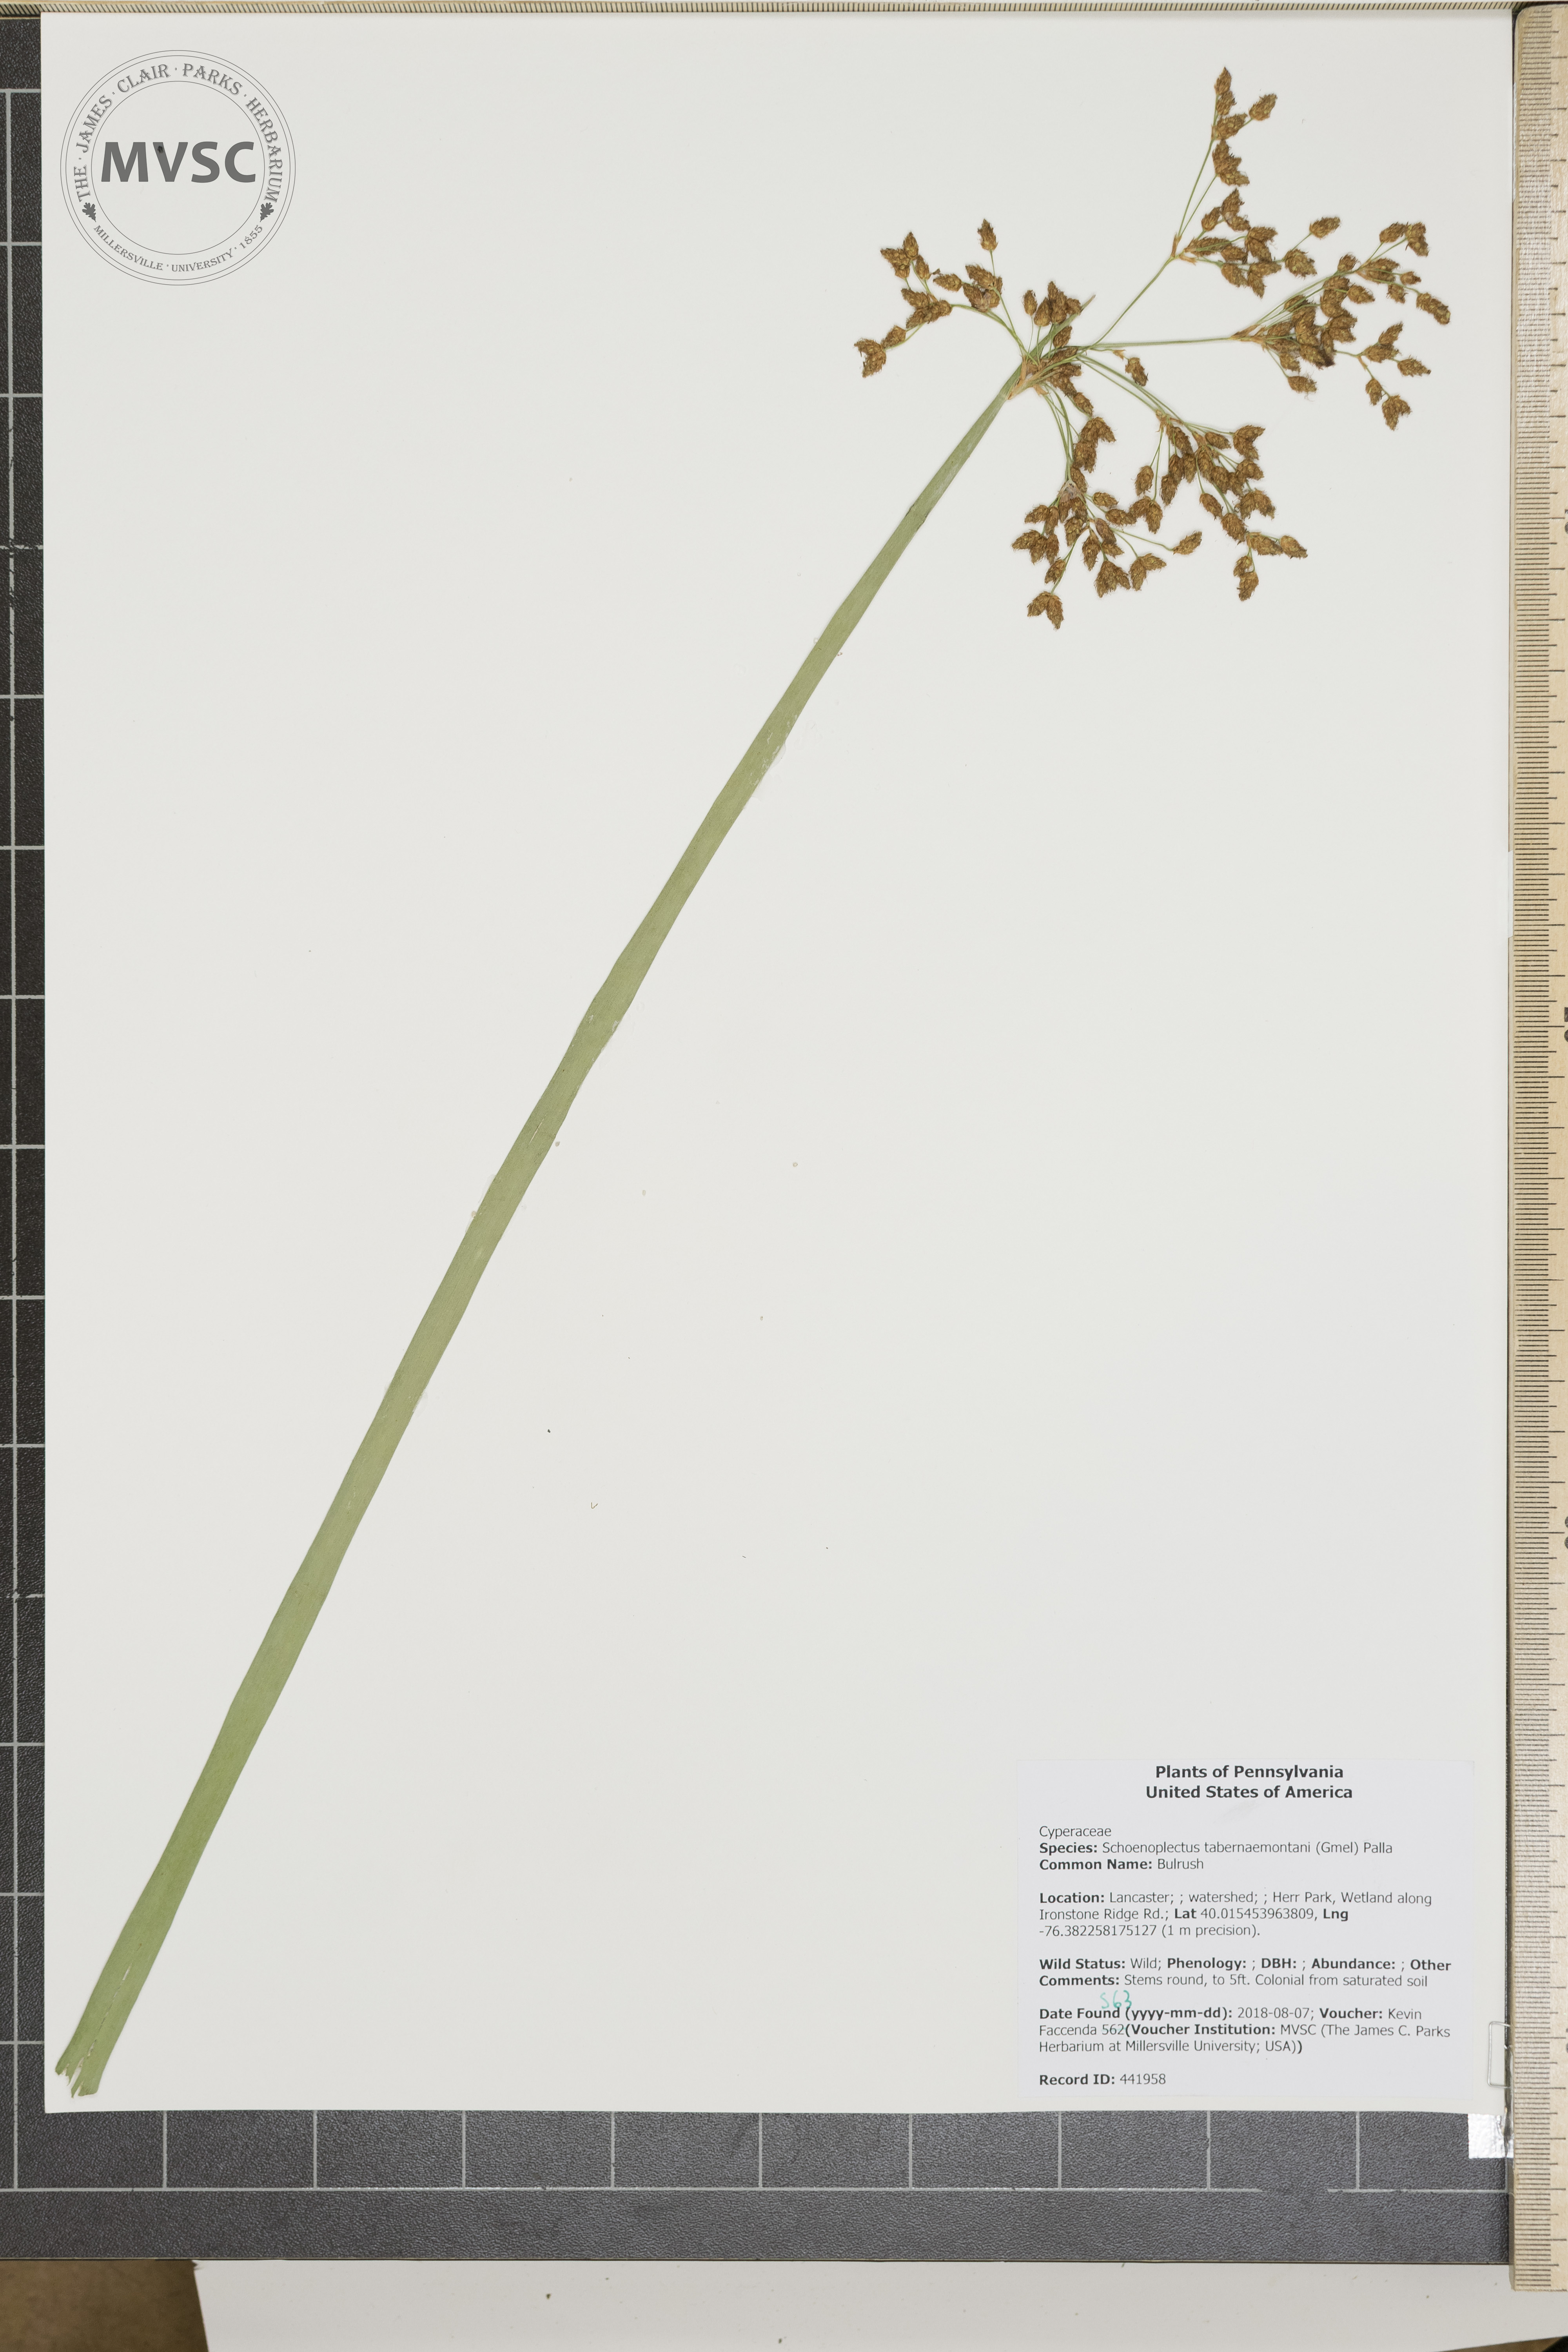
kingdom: Plantae
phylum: Tracheophyta
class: Liliopsida
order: Poales
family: Cyperaceae
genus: Schoenoplectus
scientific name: Schoenoplectus tabernaemontani
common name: Bulrush
